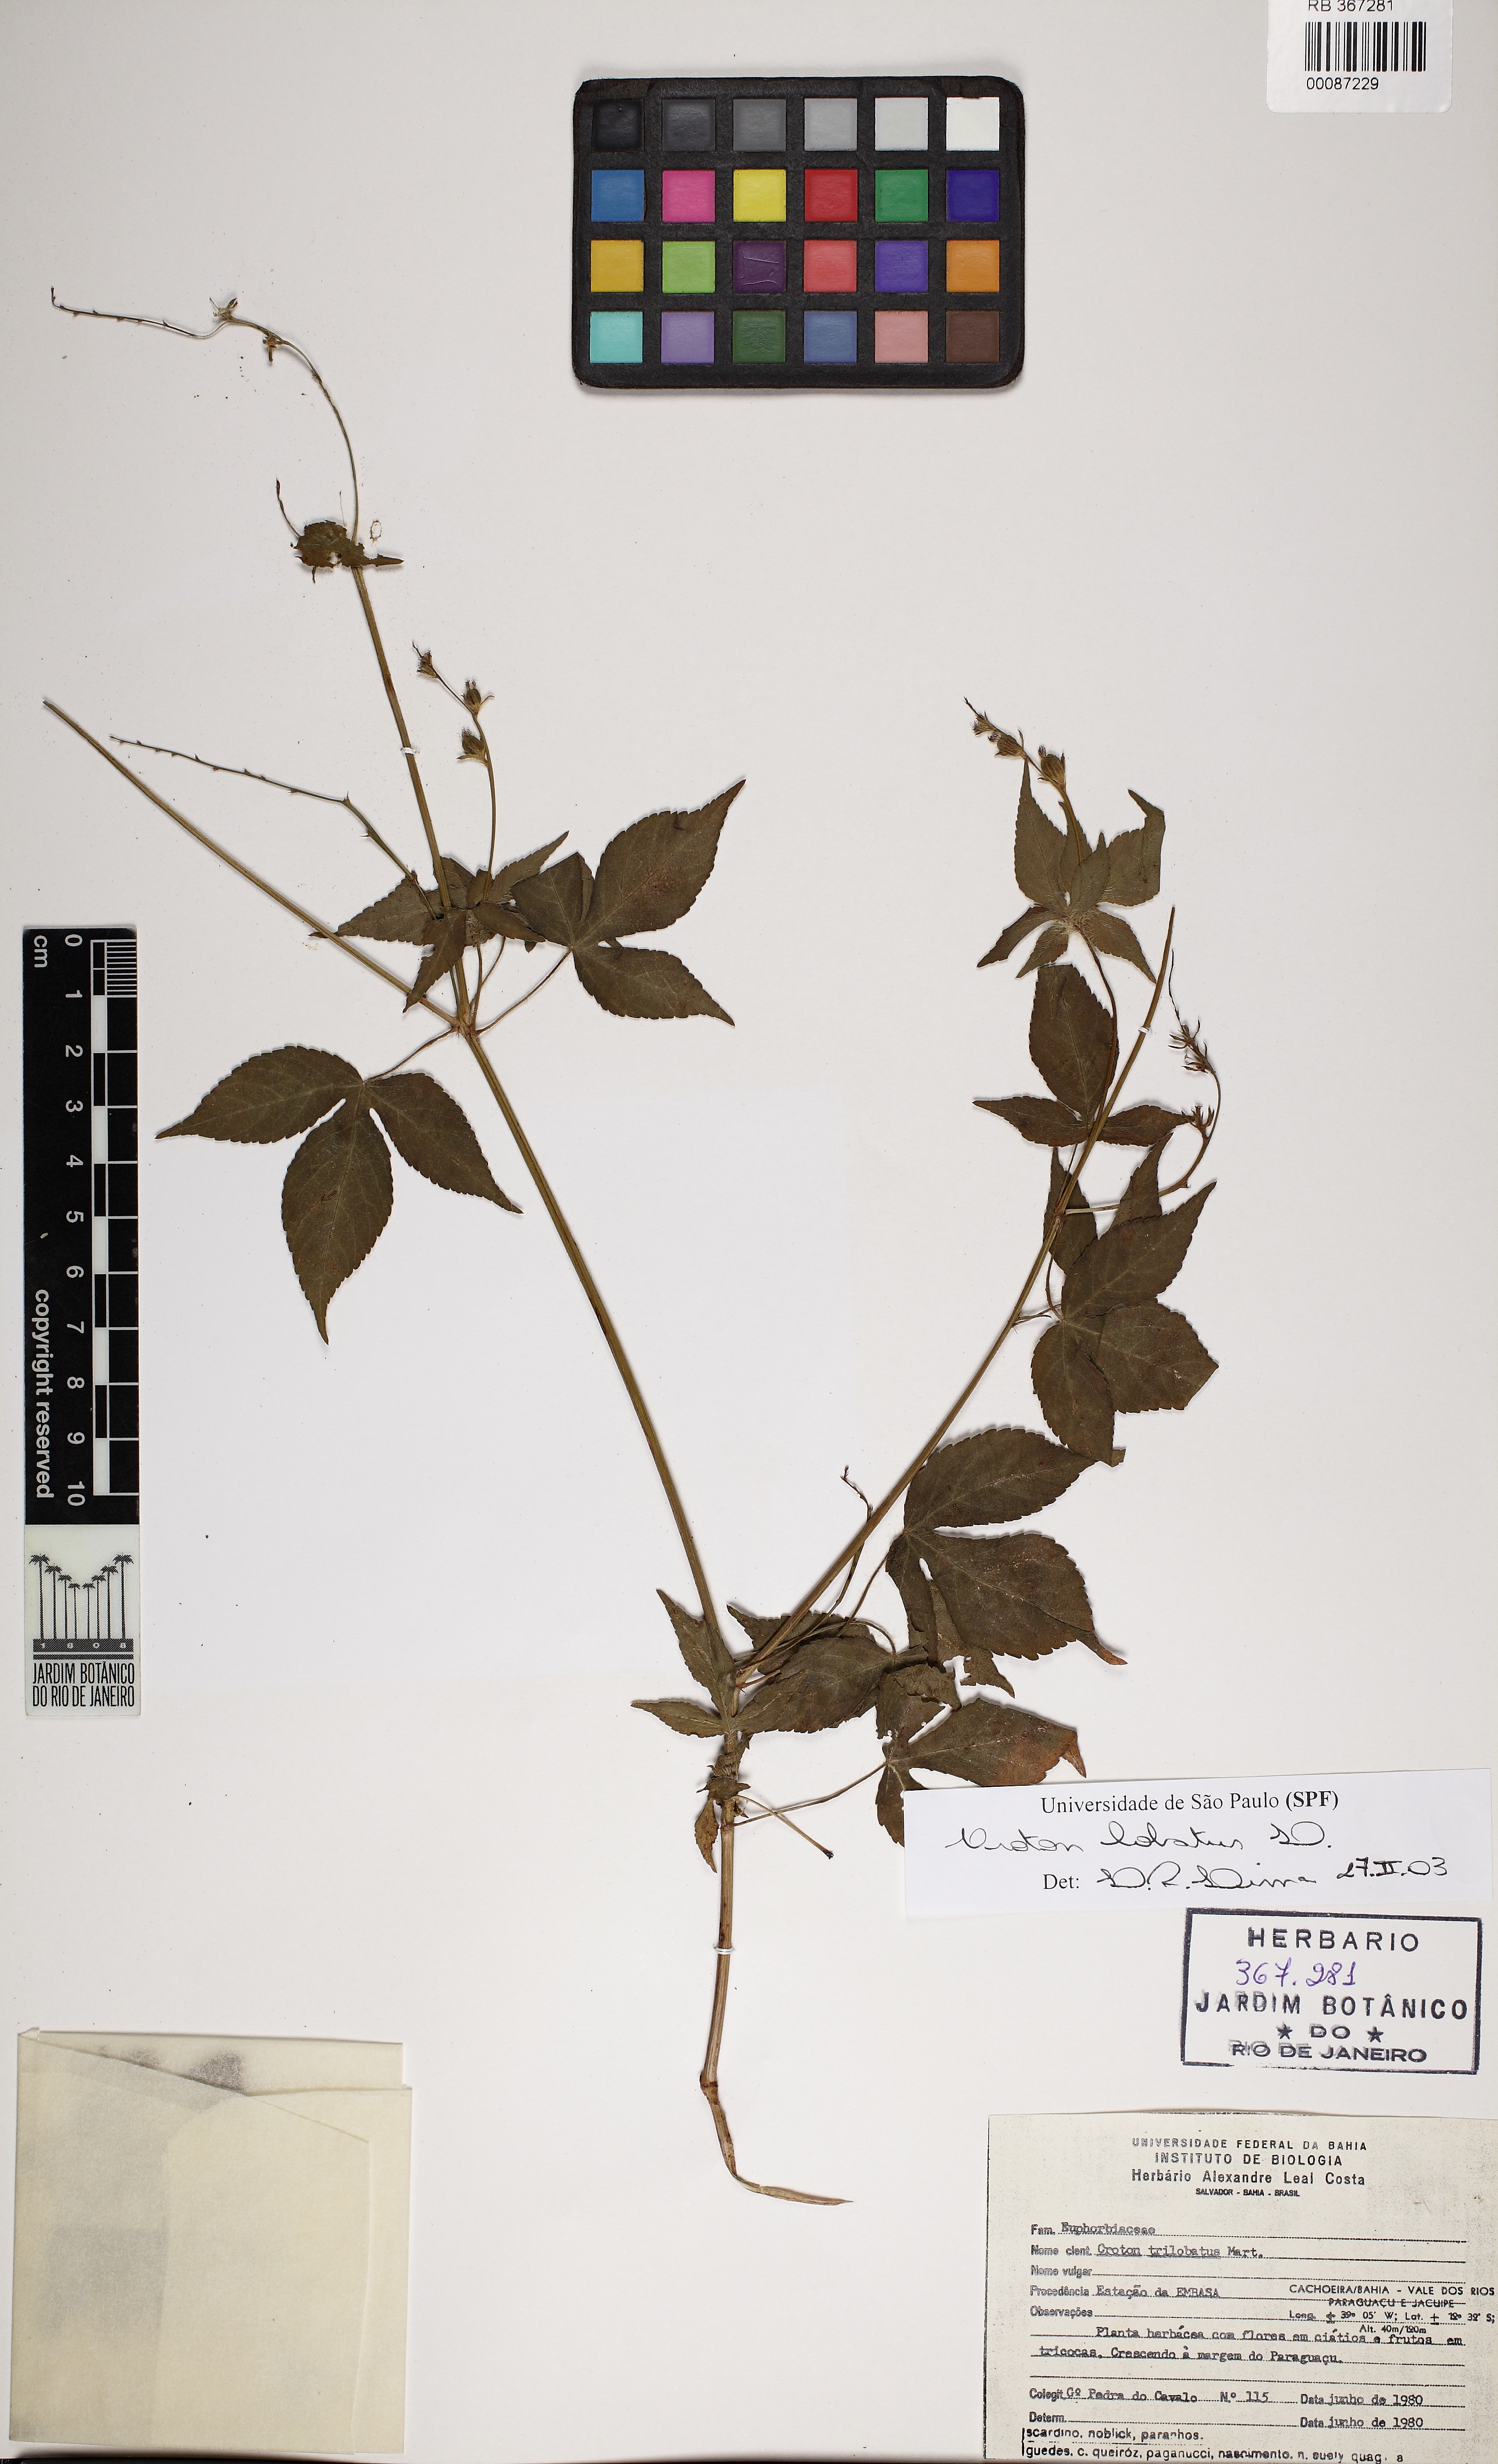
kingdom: Plantae
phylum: Tracheophyta
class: Magnoliopsida
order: Malpighiales
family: Euphorbiaceae
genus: Astraea
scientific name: Astraea surinamensis
